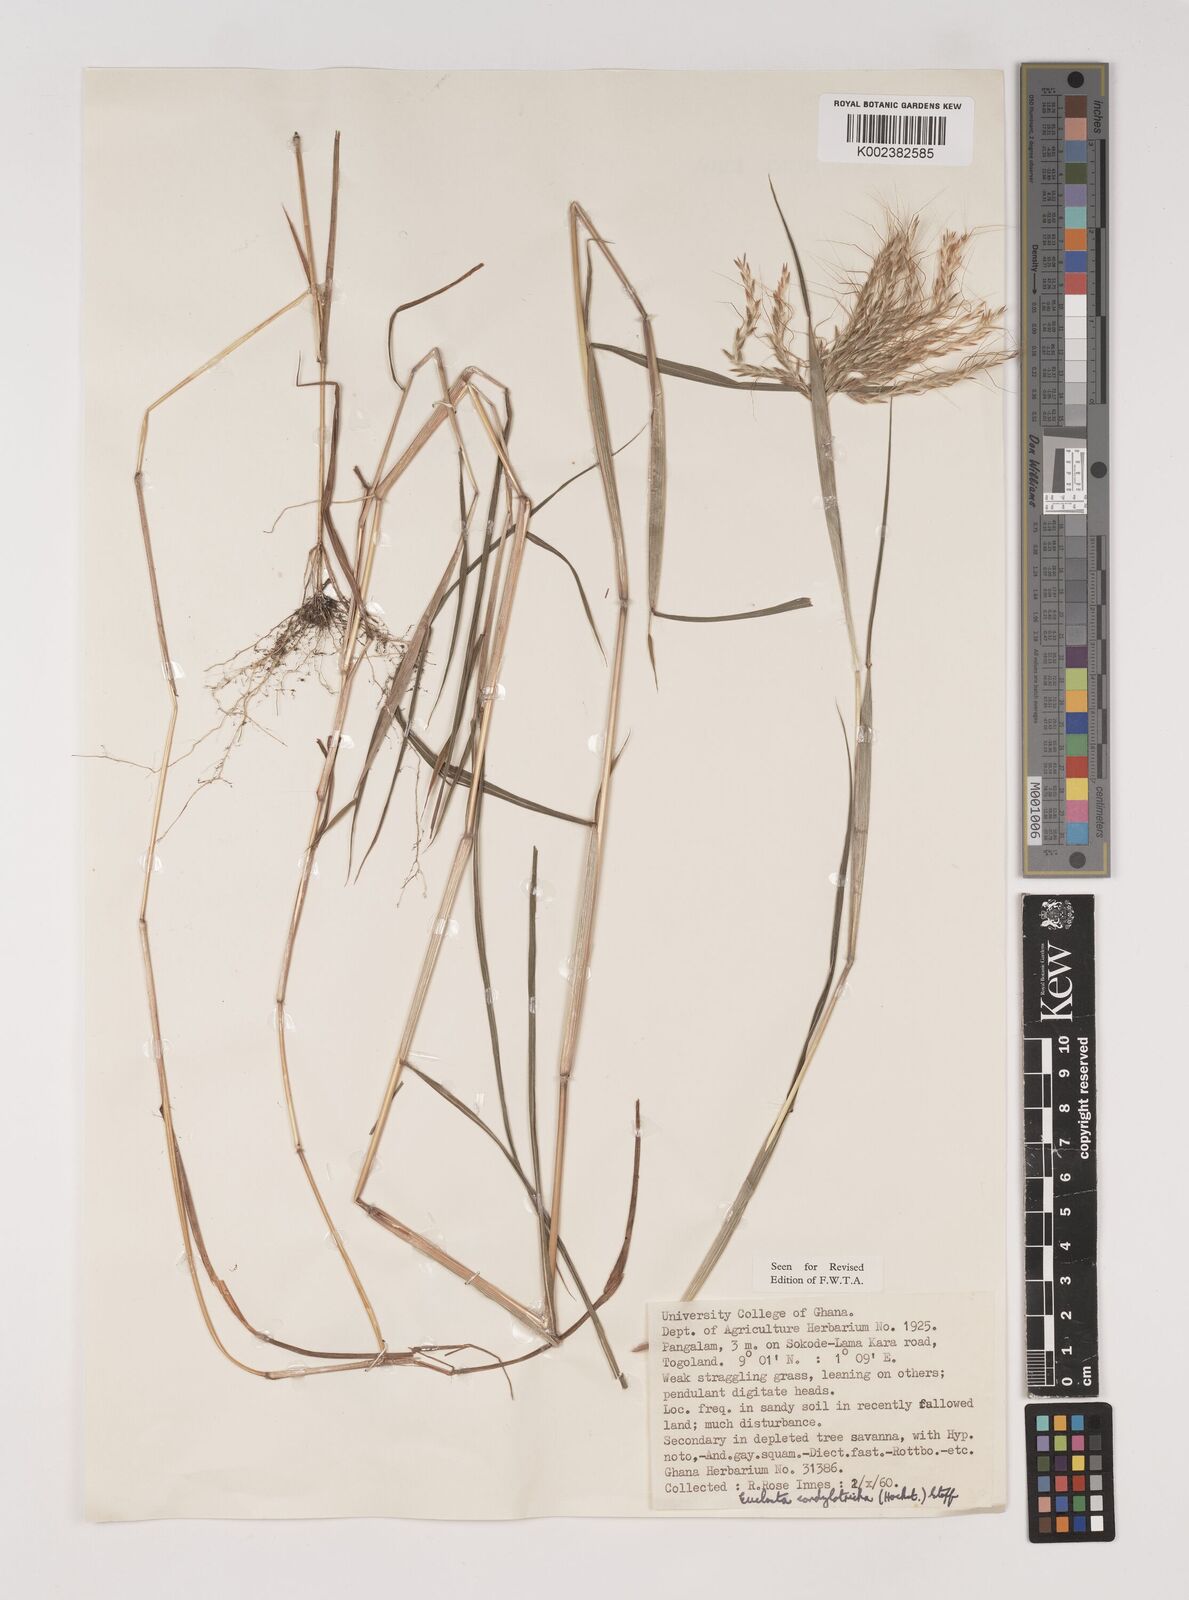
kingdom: Plantae
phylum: Tracheophyta
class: Liliopsida
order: Poales
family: Poaceae
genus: Euclasta
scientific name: Euclasta condylotricha
